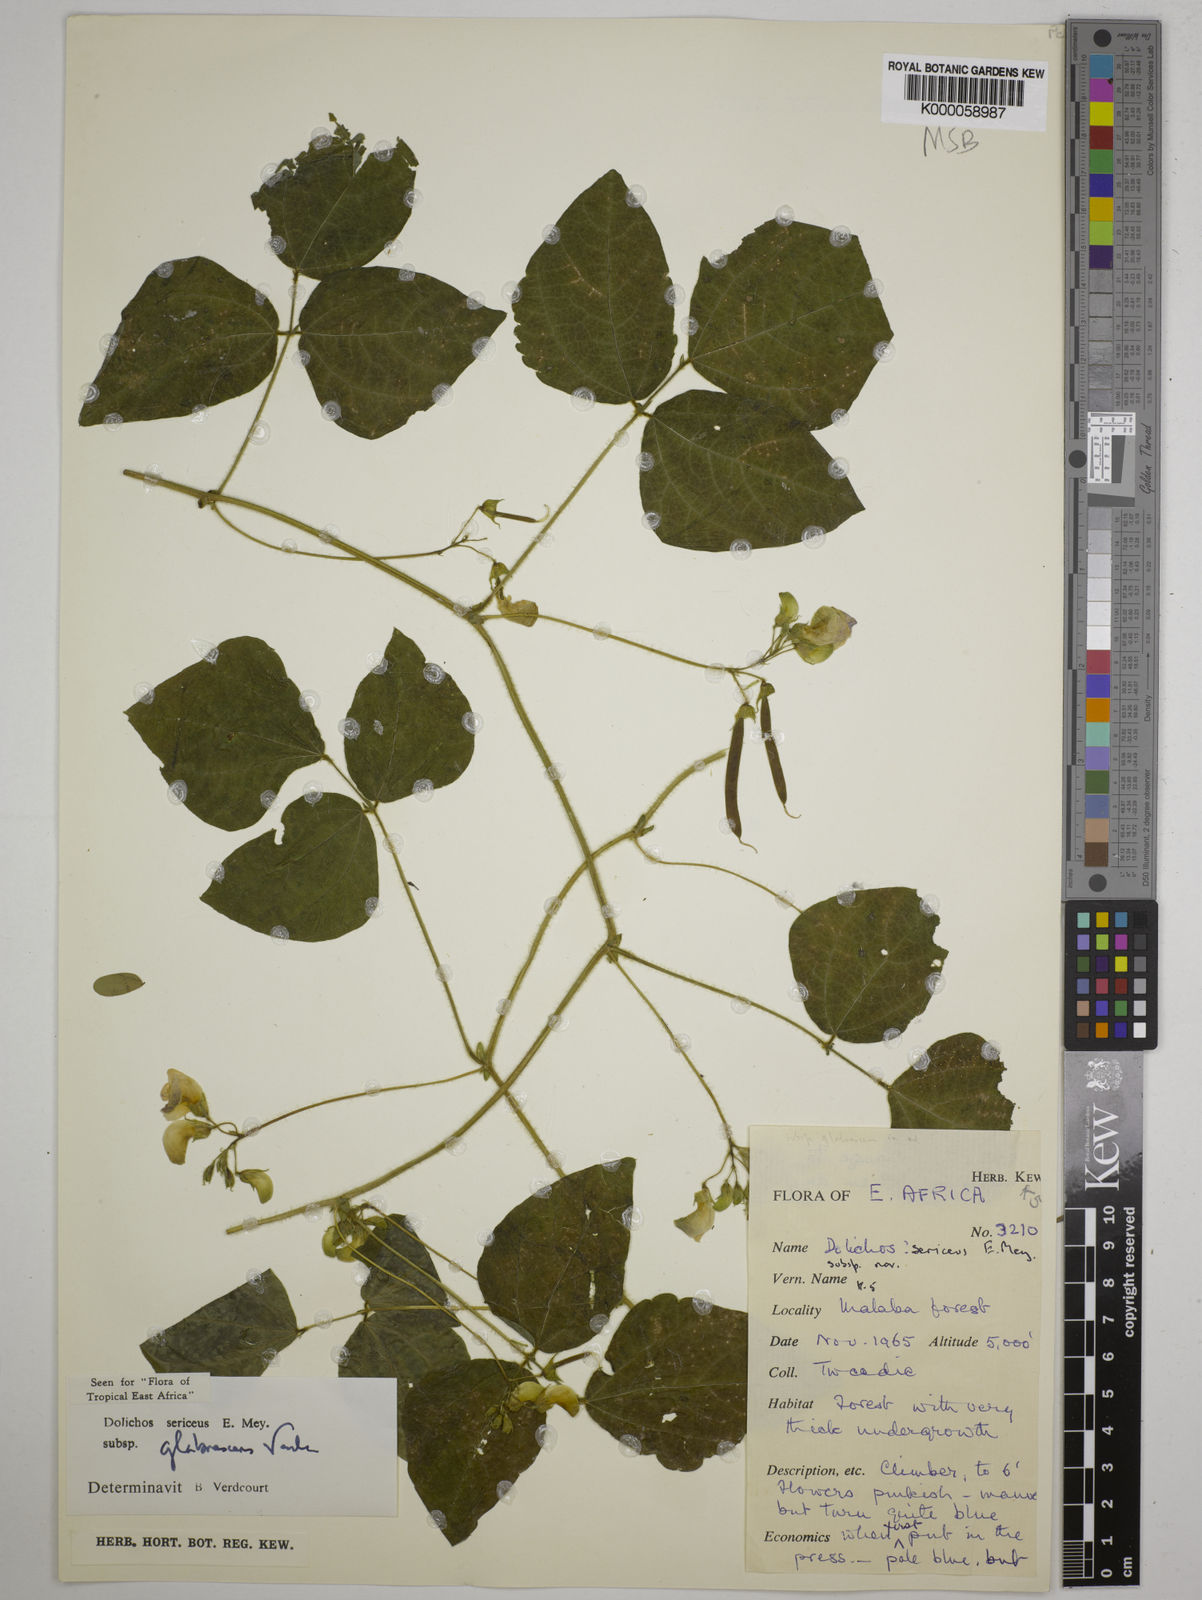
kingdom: Plantae
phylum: Tracheophyta
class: Magnoliopsida
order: Fabales
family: Fabaceae
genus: Dolichos
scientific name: Dolichos sericeus
